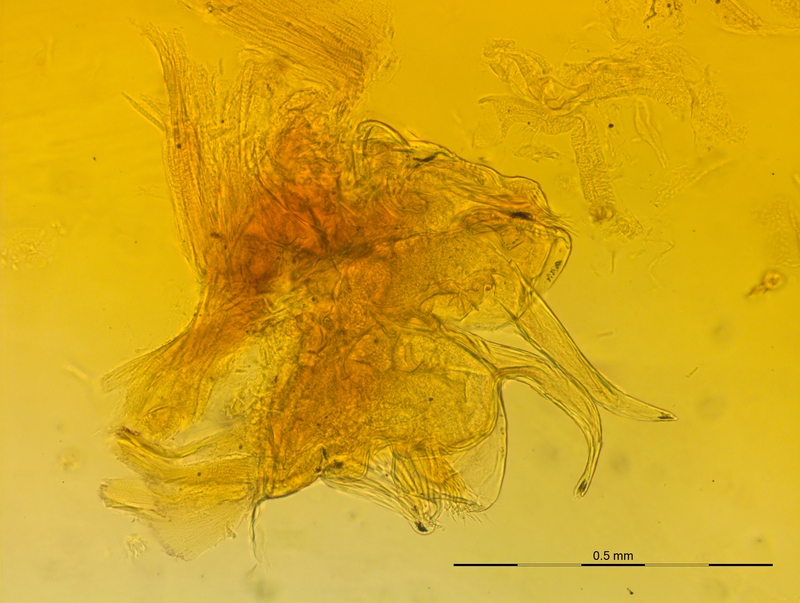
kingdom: Animalia
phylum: Arthropoda
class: Diplopoda
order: Chordeumatida
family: Craspedosomatidae
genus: Craspedosoma
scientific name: Craspedosoma transsilvanicum
